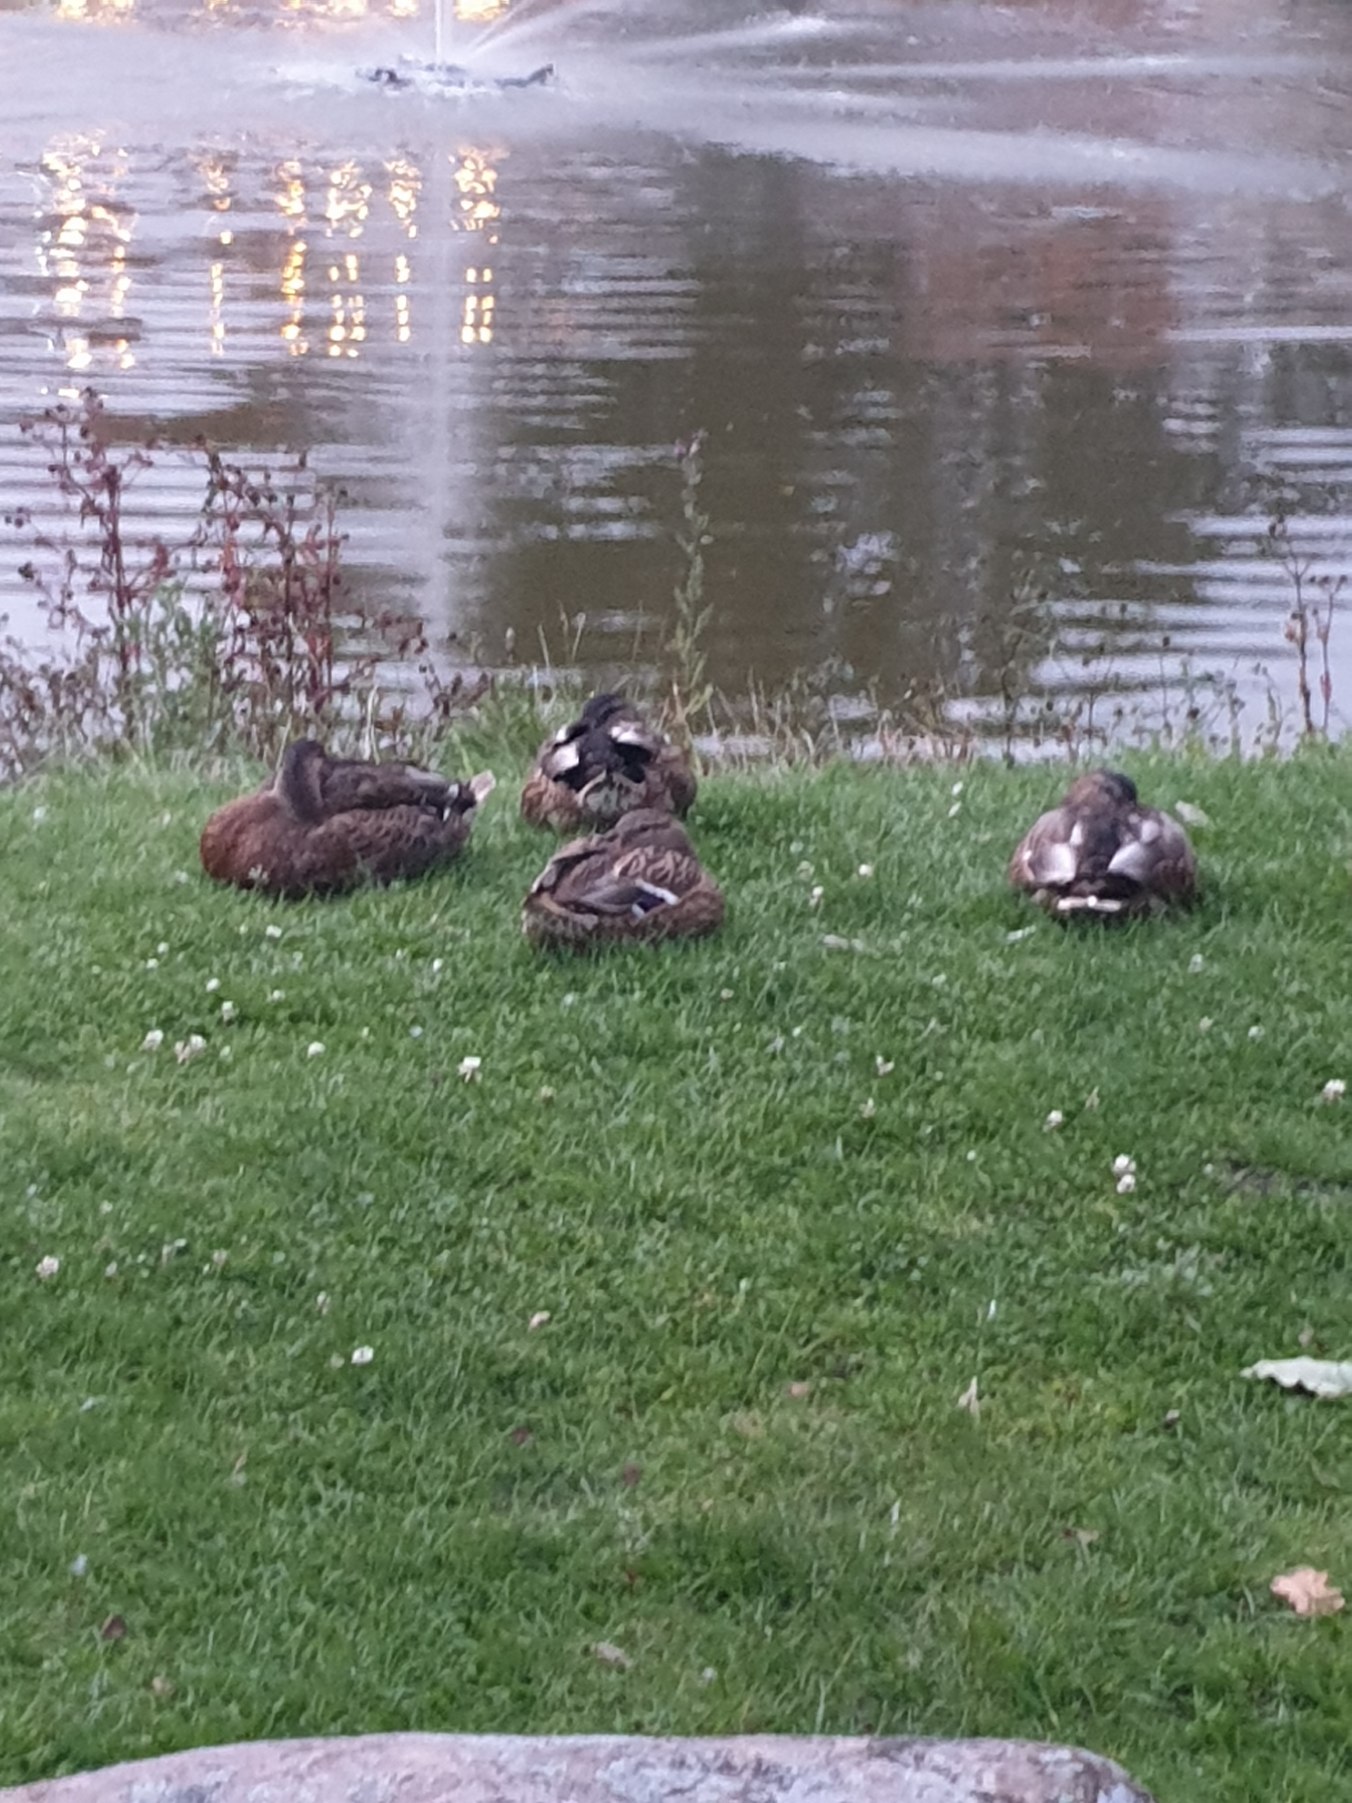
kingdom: Animalia
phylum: Chordata
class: Aves
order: Anseriformes
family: Anatidae
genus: Anas
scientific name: Anas platyrhynchos
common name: Gråand
